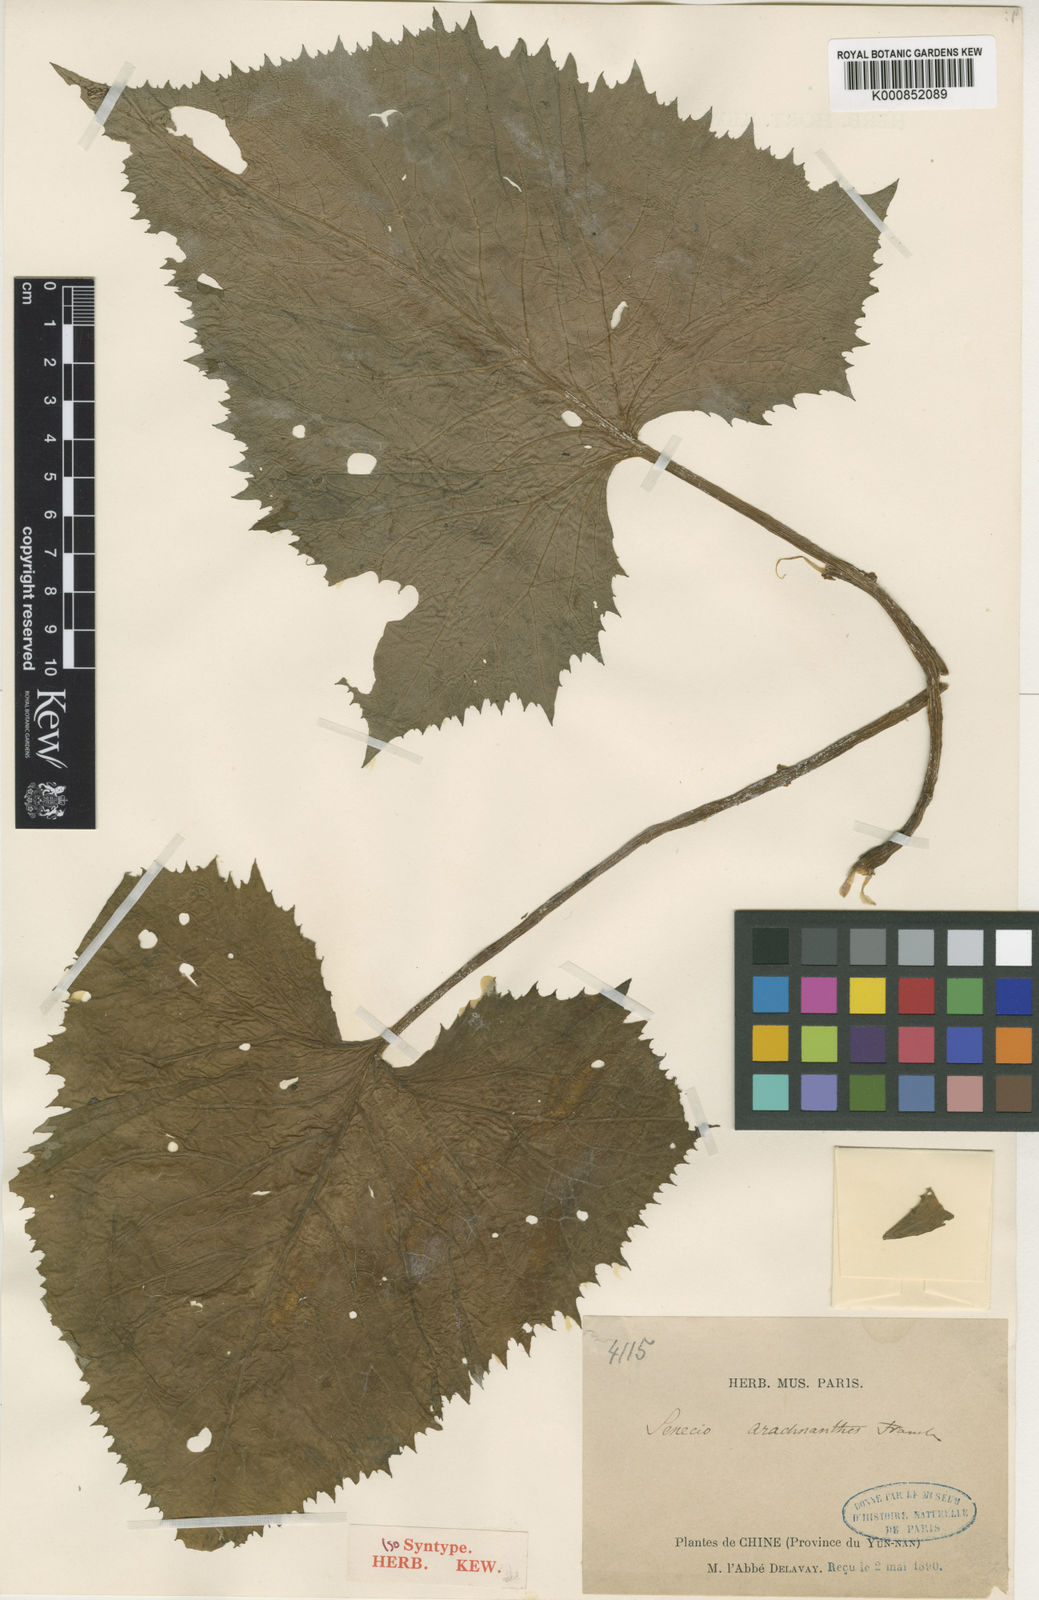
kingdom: Plantae
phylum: Tracheophyta
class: Magnoliopsida
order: Asterales
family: Asteraceae
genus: Senecio
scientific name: Senecio arachnanthus
